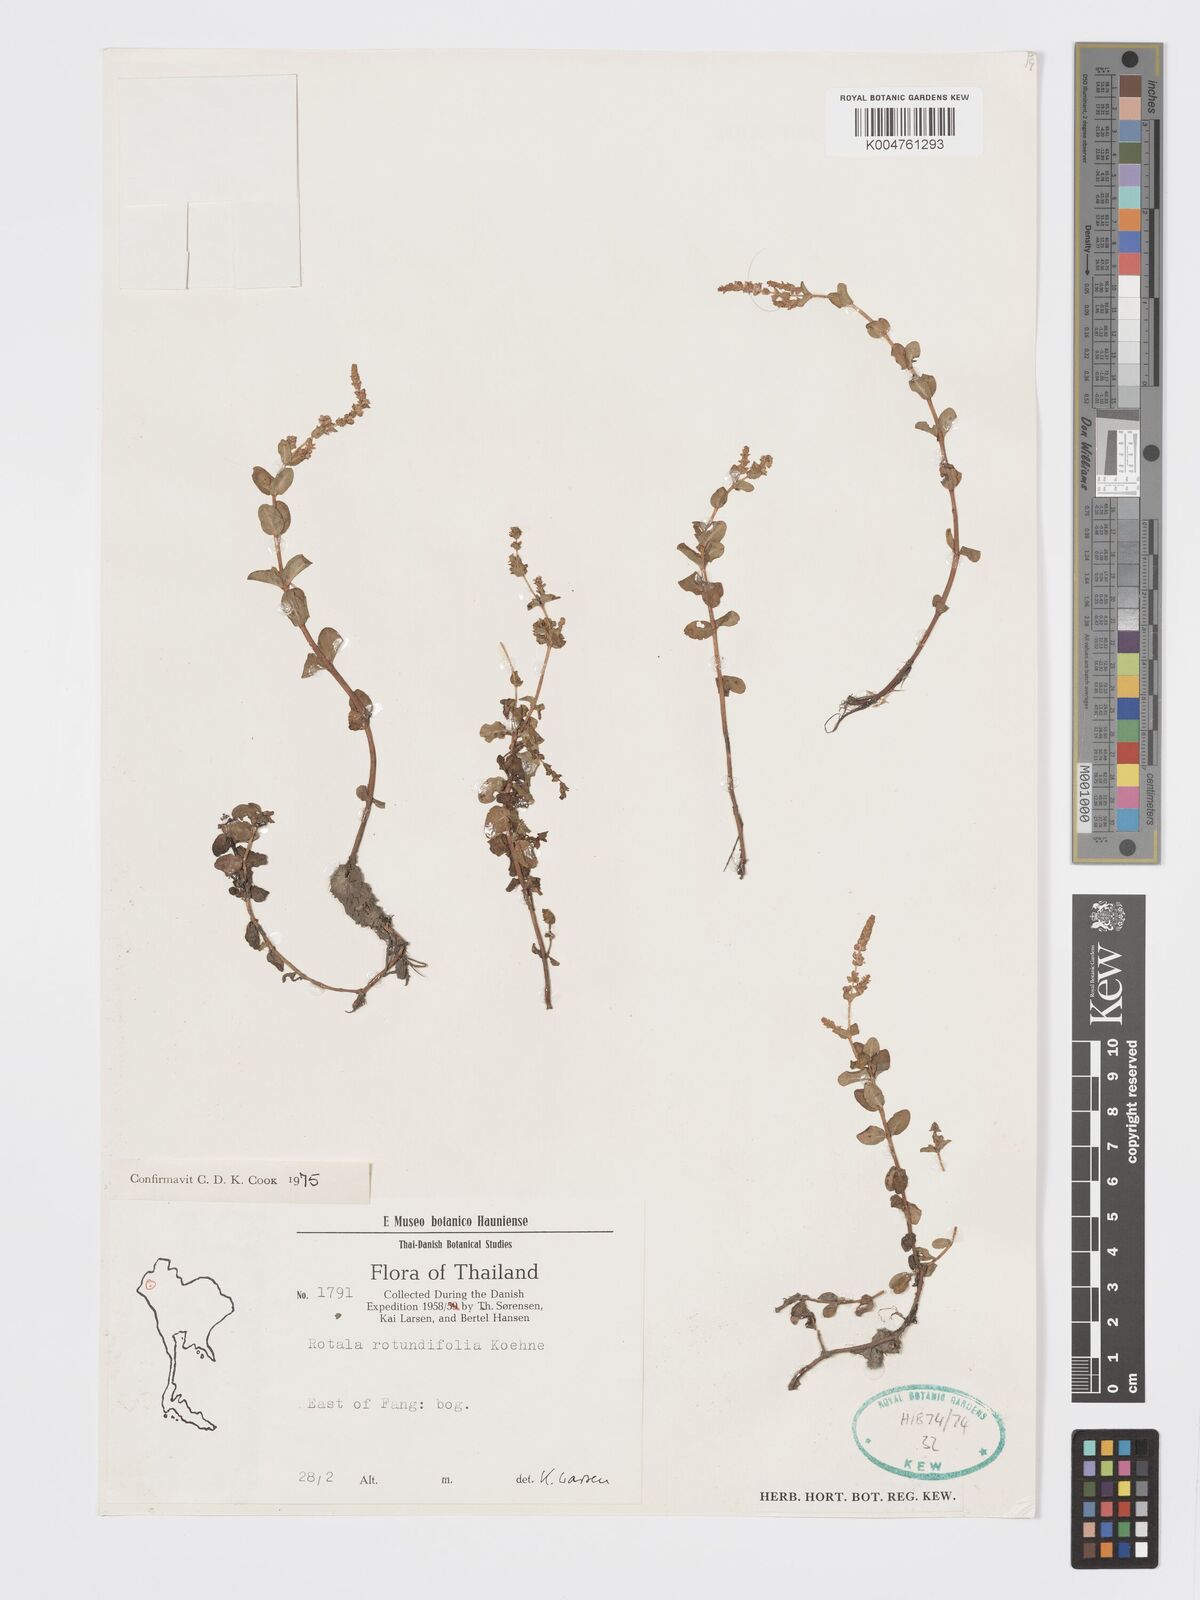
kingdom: Plantae
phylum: Tracheophyta
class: Magnoliopsida
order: Myrtales
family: Lythraceae
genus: Rotala
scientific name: Rotala rotundifolia
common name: Roundleaf toothcup
